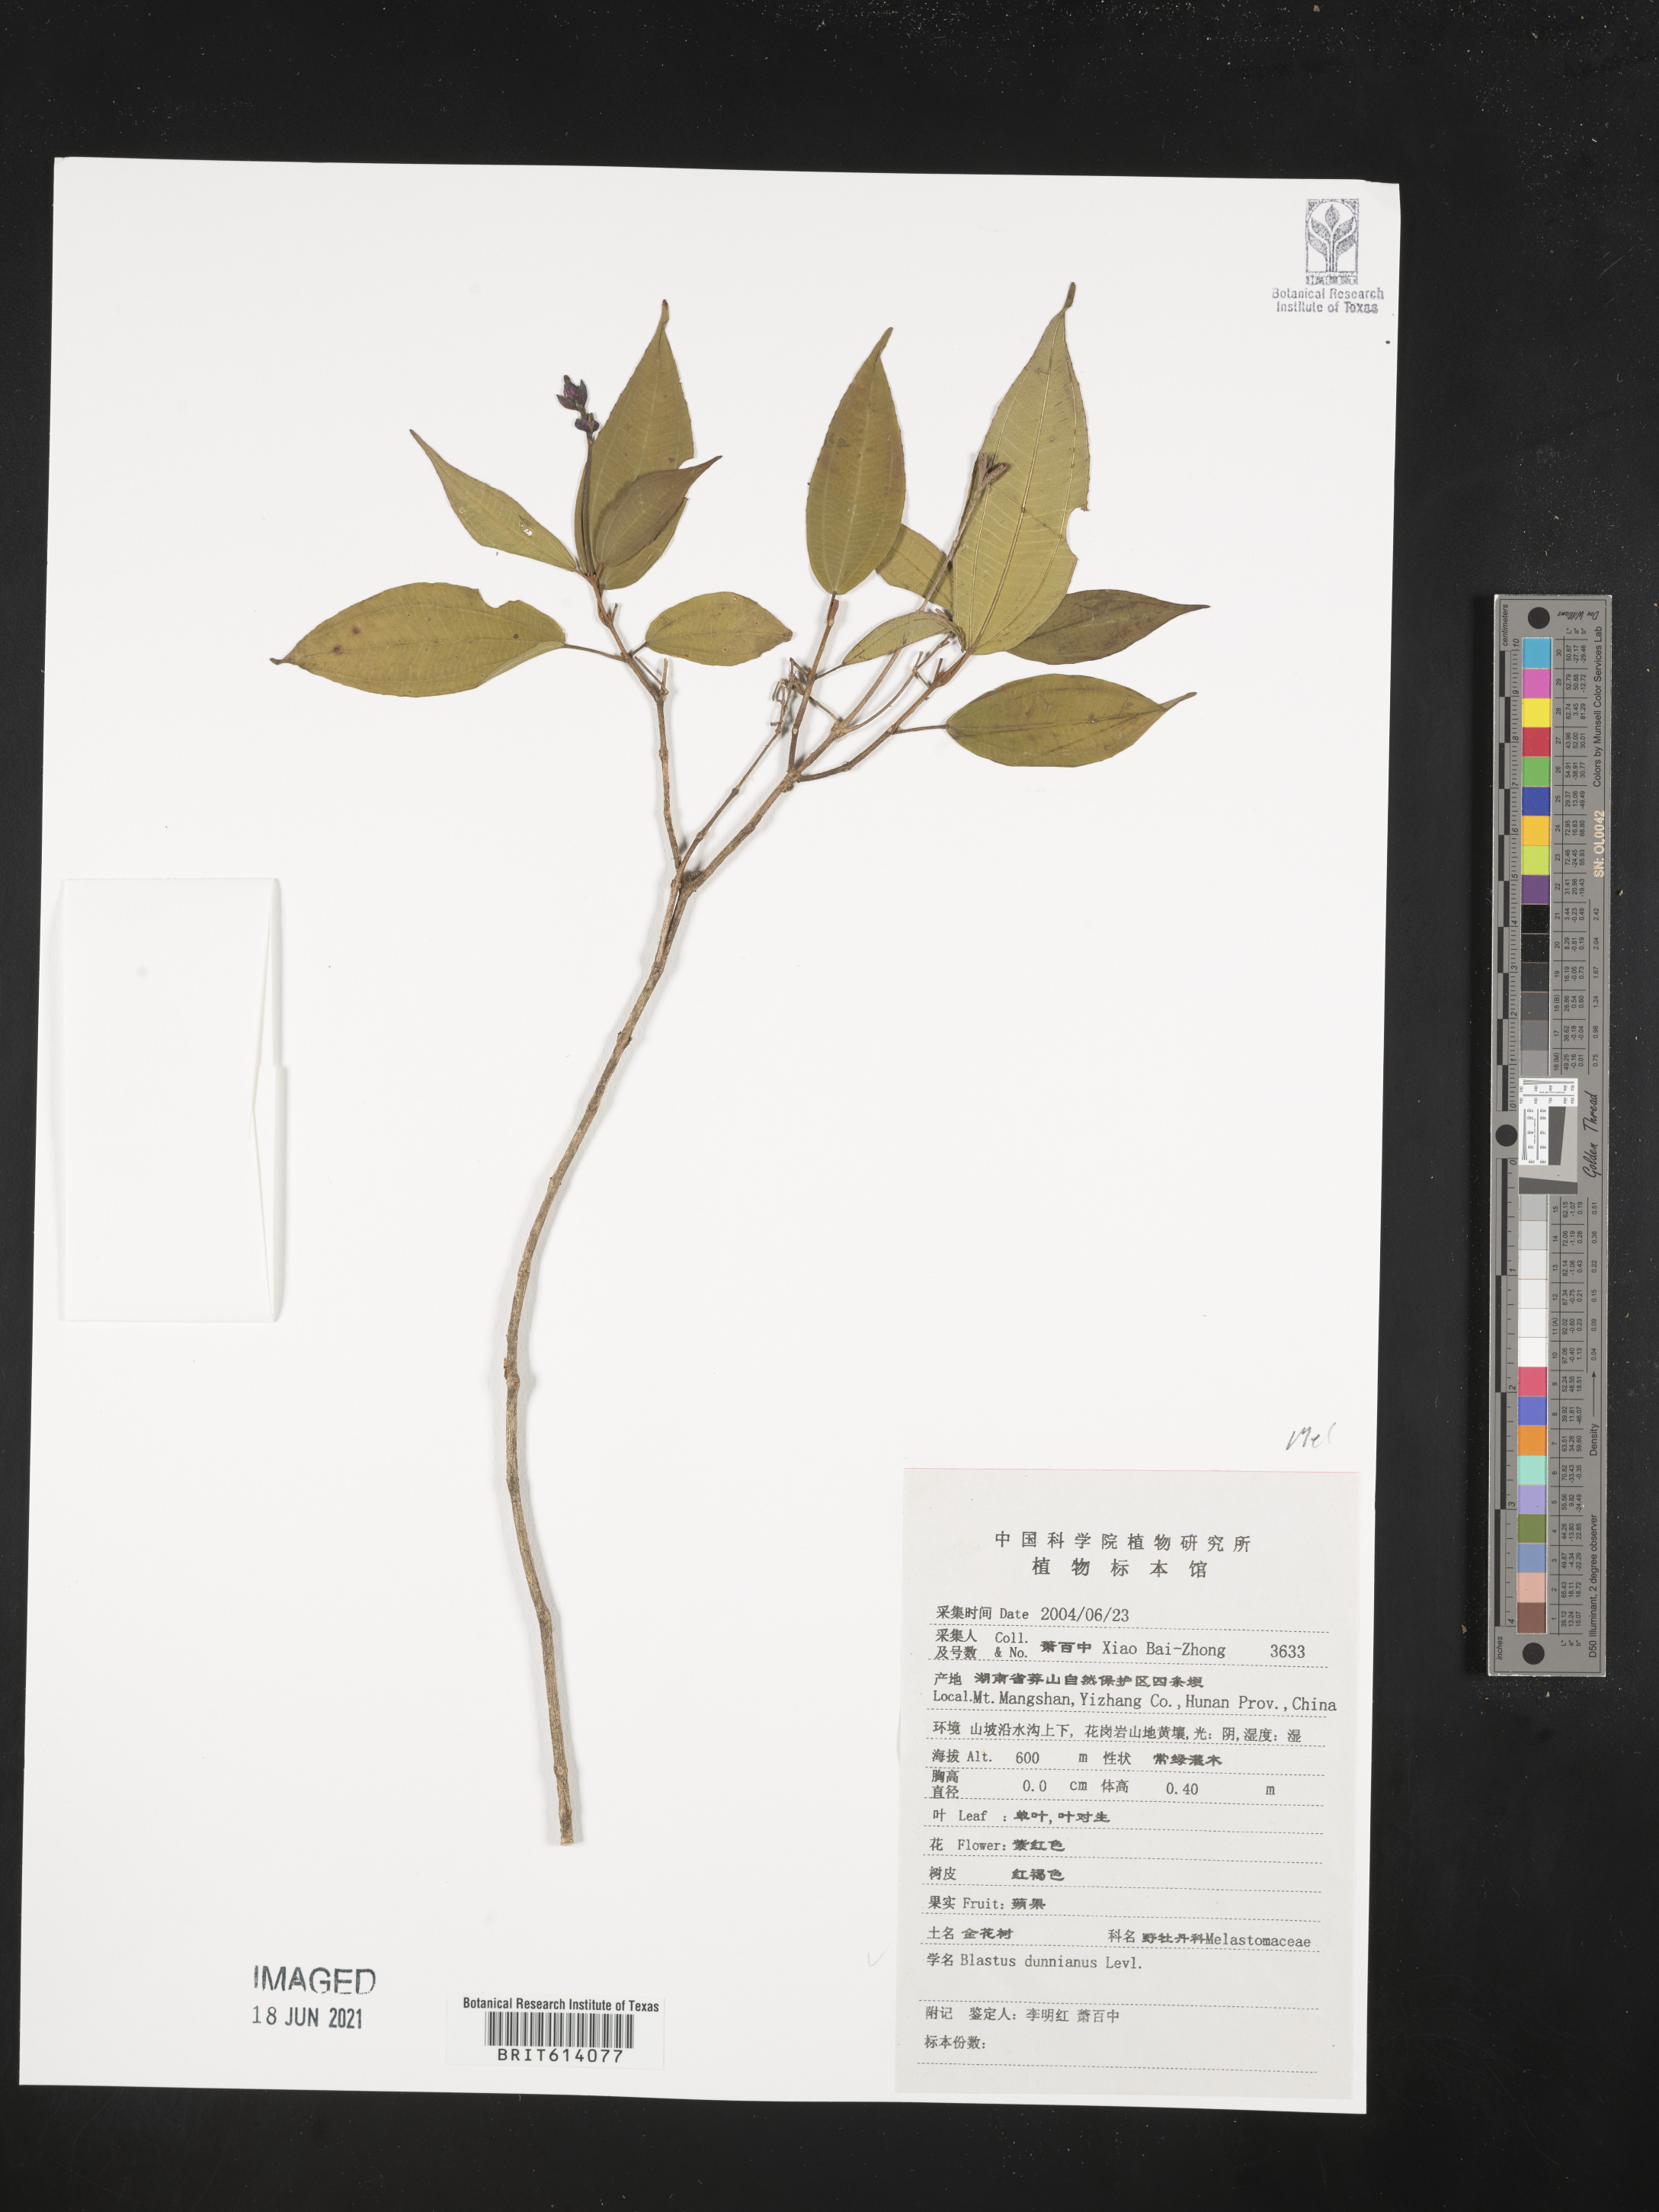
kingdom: Plantae
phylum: Tracheophyta
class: Magnoliopsida
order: Myrtales
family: Melastomataceae
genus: Blastus
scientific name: Blastus pauciflorus
